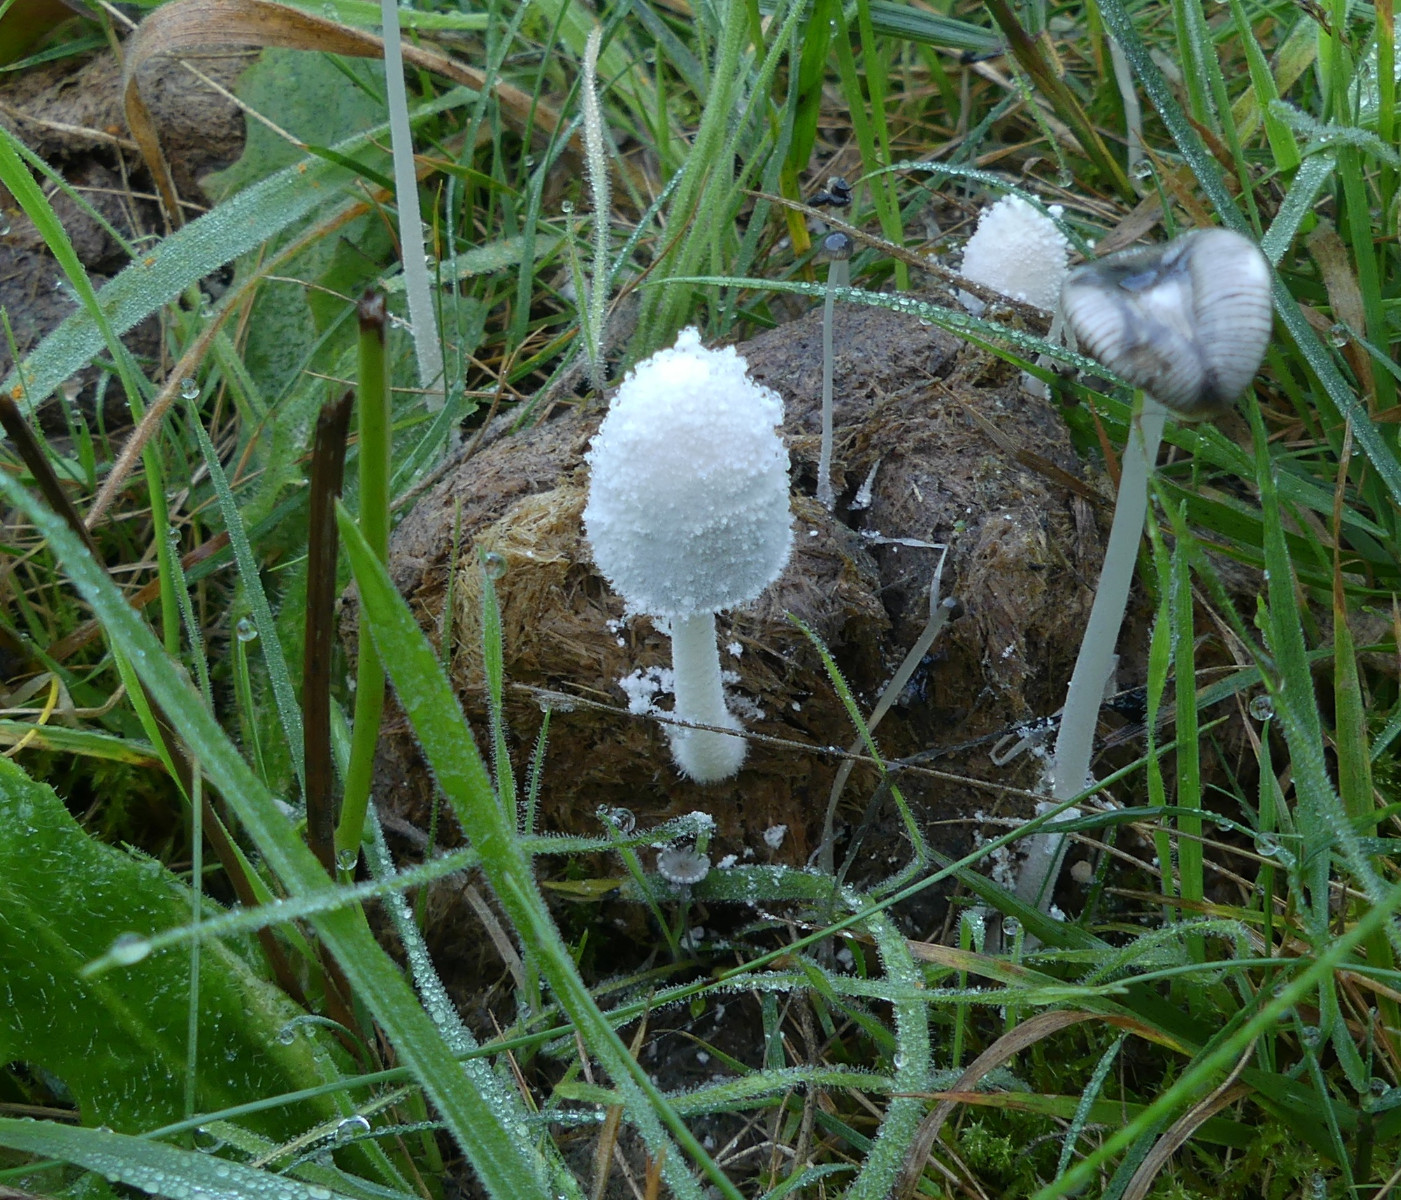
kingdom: Fungi
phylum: Basidiomycota
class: Agaricomycetes
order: Agaricales
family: Psathyrellaceae
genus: Coprinopsis
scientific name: Coprinopsis nivea
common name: snehvid blækhat
